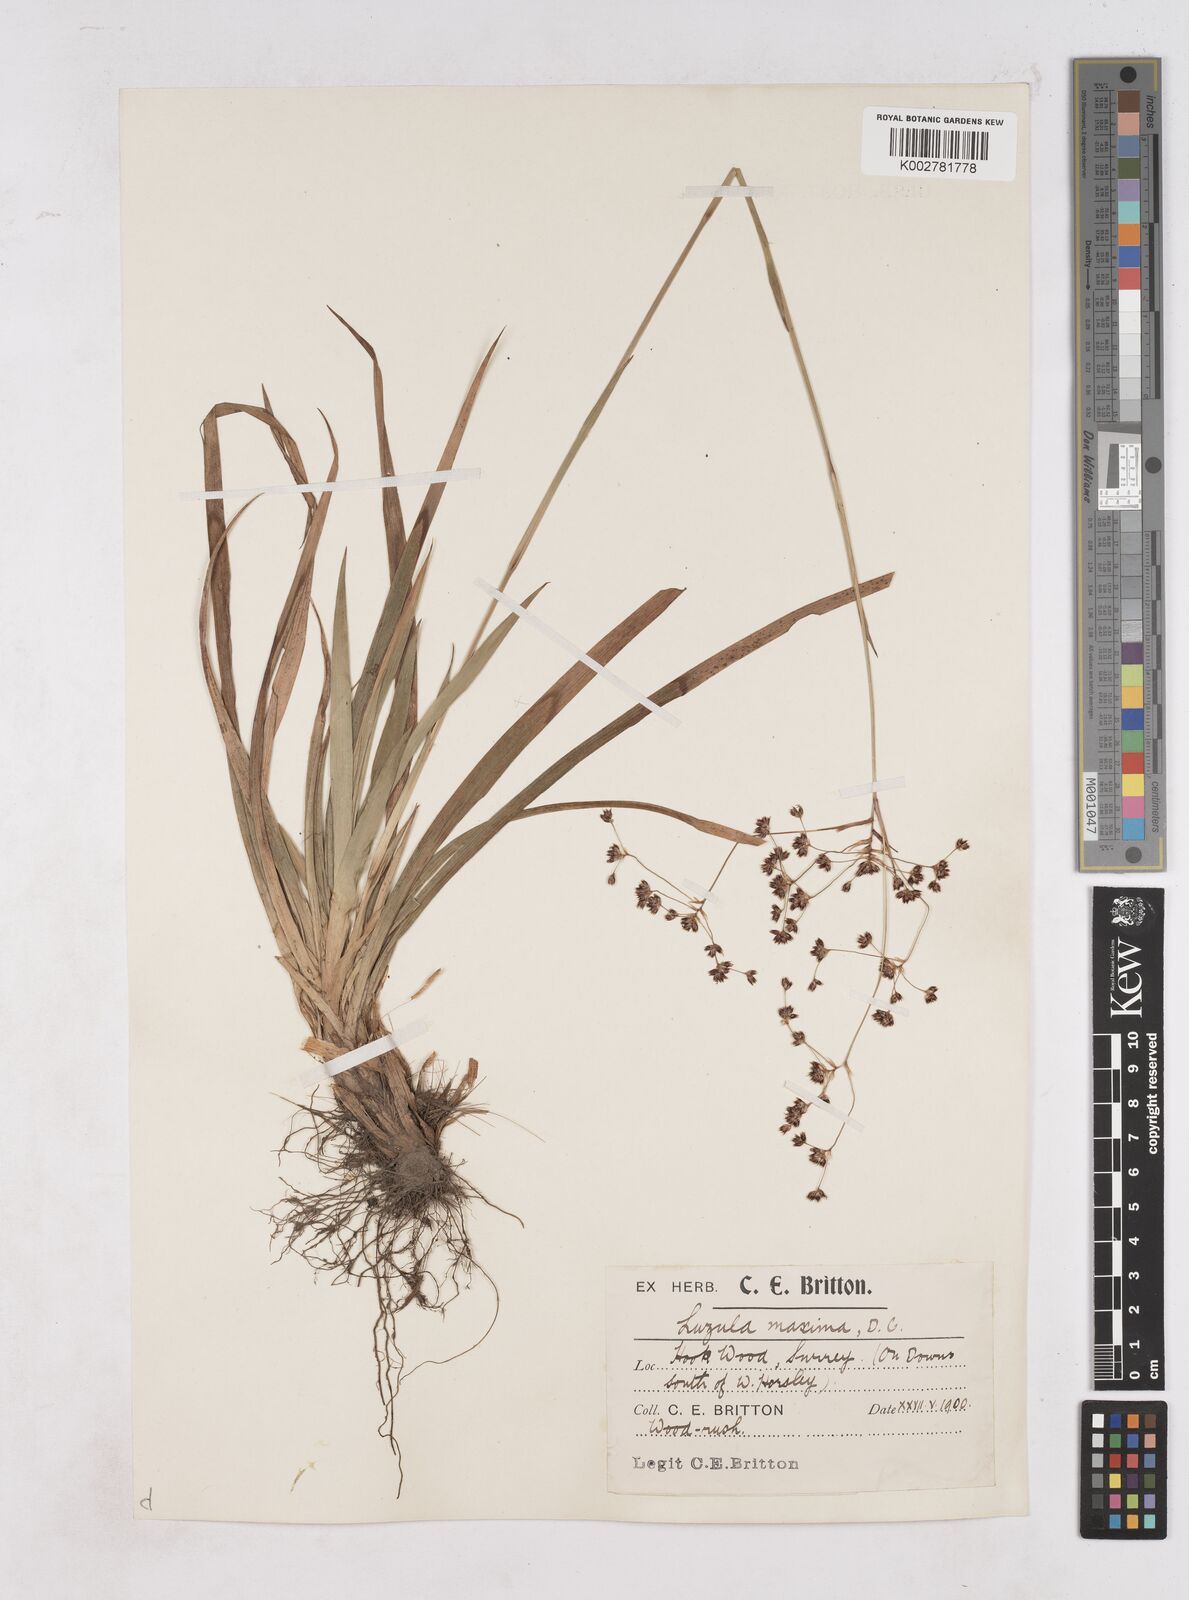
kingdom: Plantae
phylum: Tracheophyta
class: Liliopsida
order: Poales
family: Juncaceae
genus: Luzula
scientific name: Luzula sylvatica
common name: Great wood-rush
